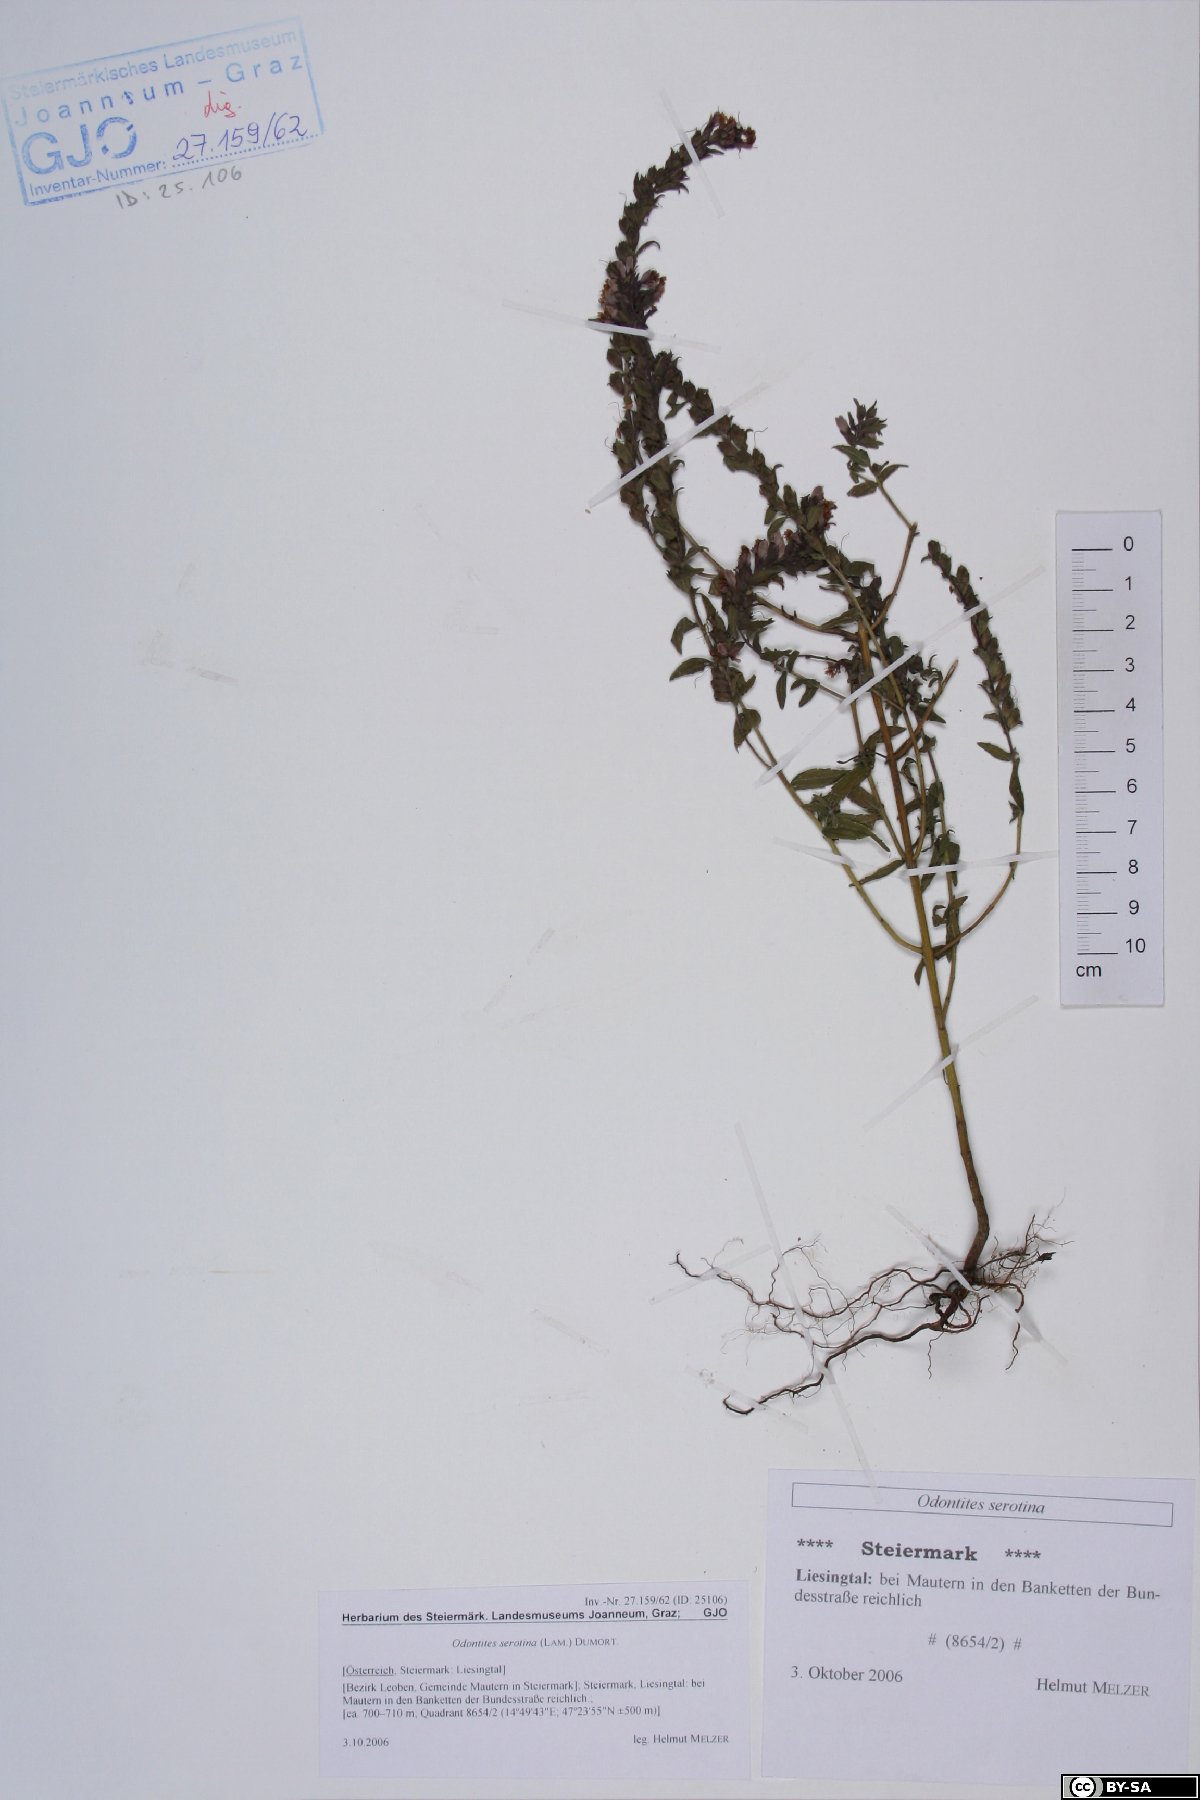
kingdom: Plantae
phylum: Tracheophyta
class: Magnoliopsida
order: Lamiales
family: Orobanchaceae
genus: Odontites
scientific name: Odontites vulgaris
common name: Broomrape
